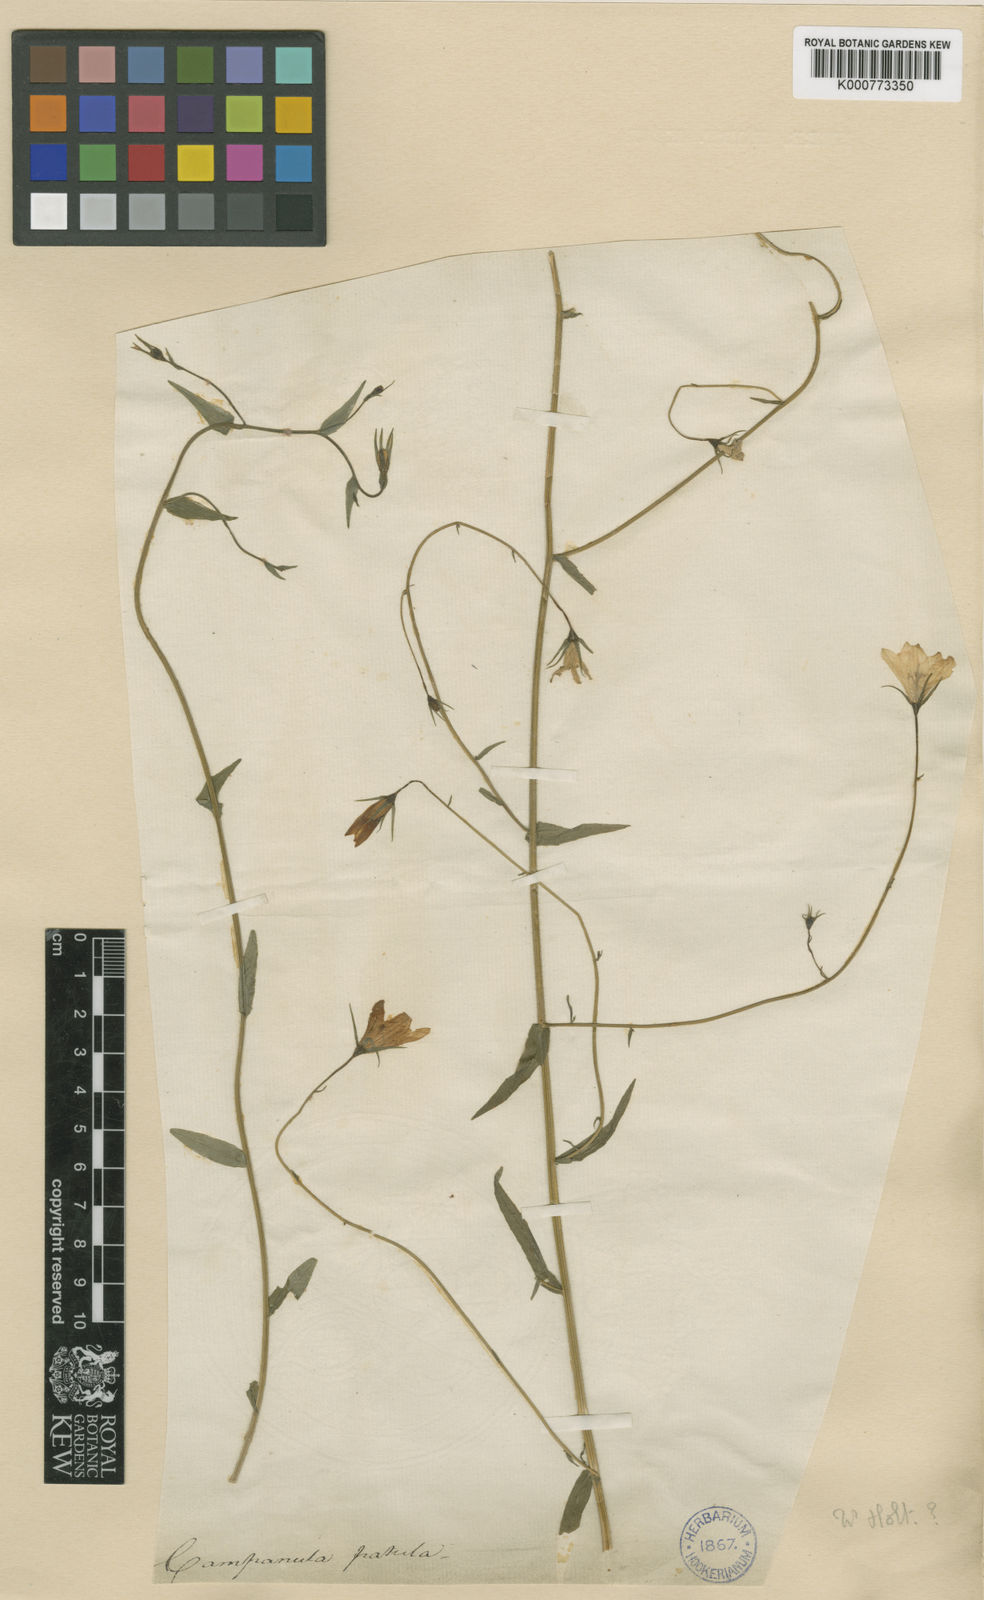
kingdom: Plantae
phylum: Tracheophyta
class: Magnoliopsida
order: Asterales
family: Campanulaceae
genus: Campanula
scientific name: Campanula patula
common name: Spreading bellflower
